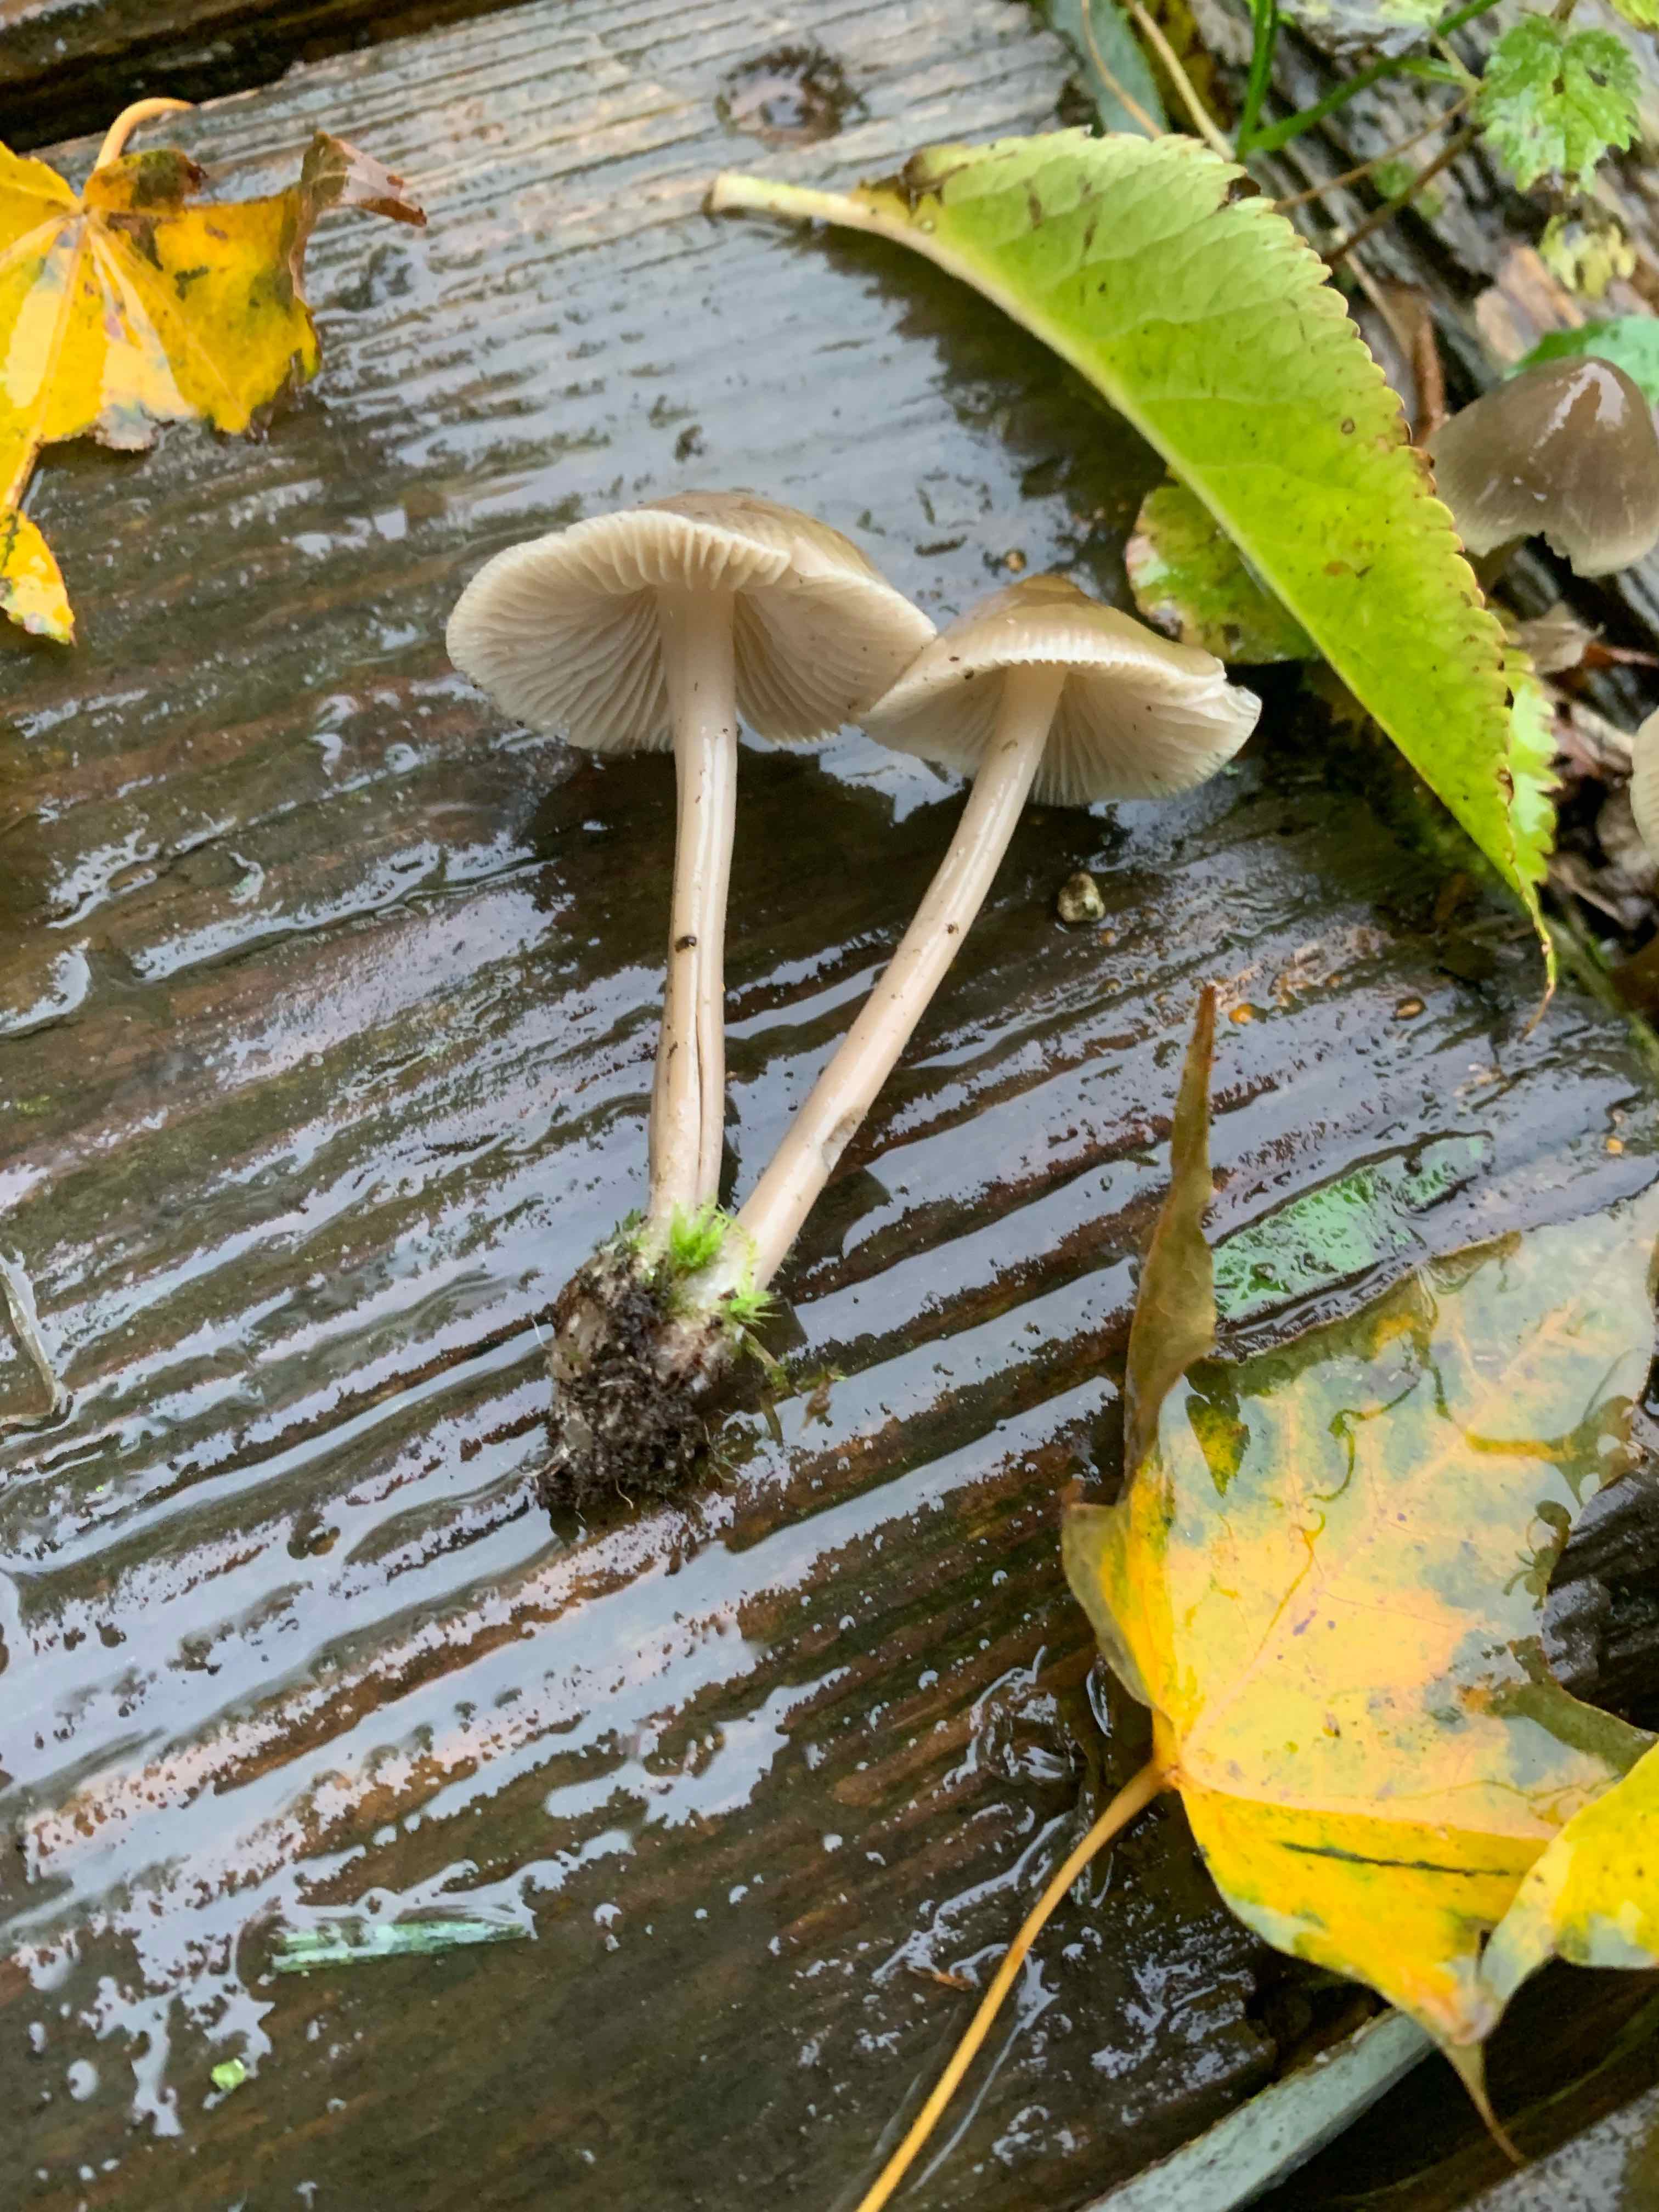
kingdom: Fungi
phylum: Basidiomycota
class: Agaricomycetes
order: Agaricales
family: Mycenaceae
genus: Mycena
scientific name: Mycena galericulata
